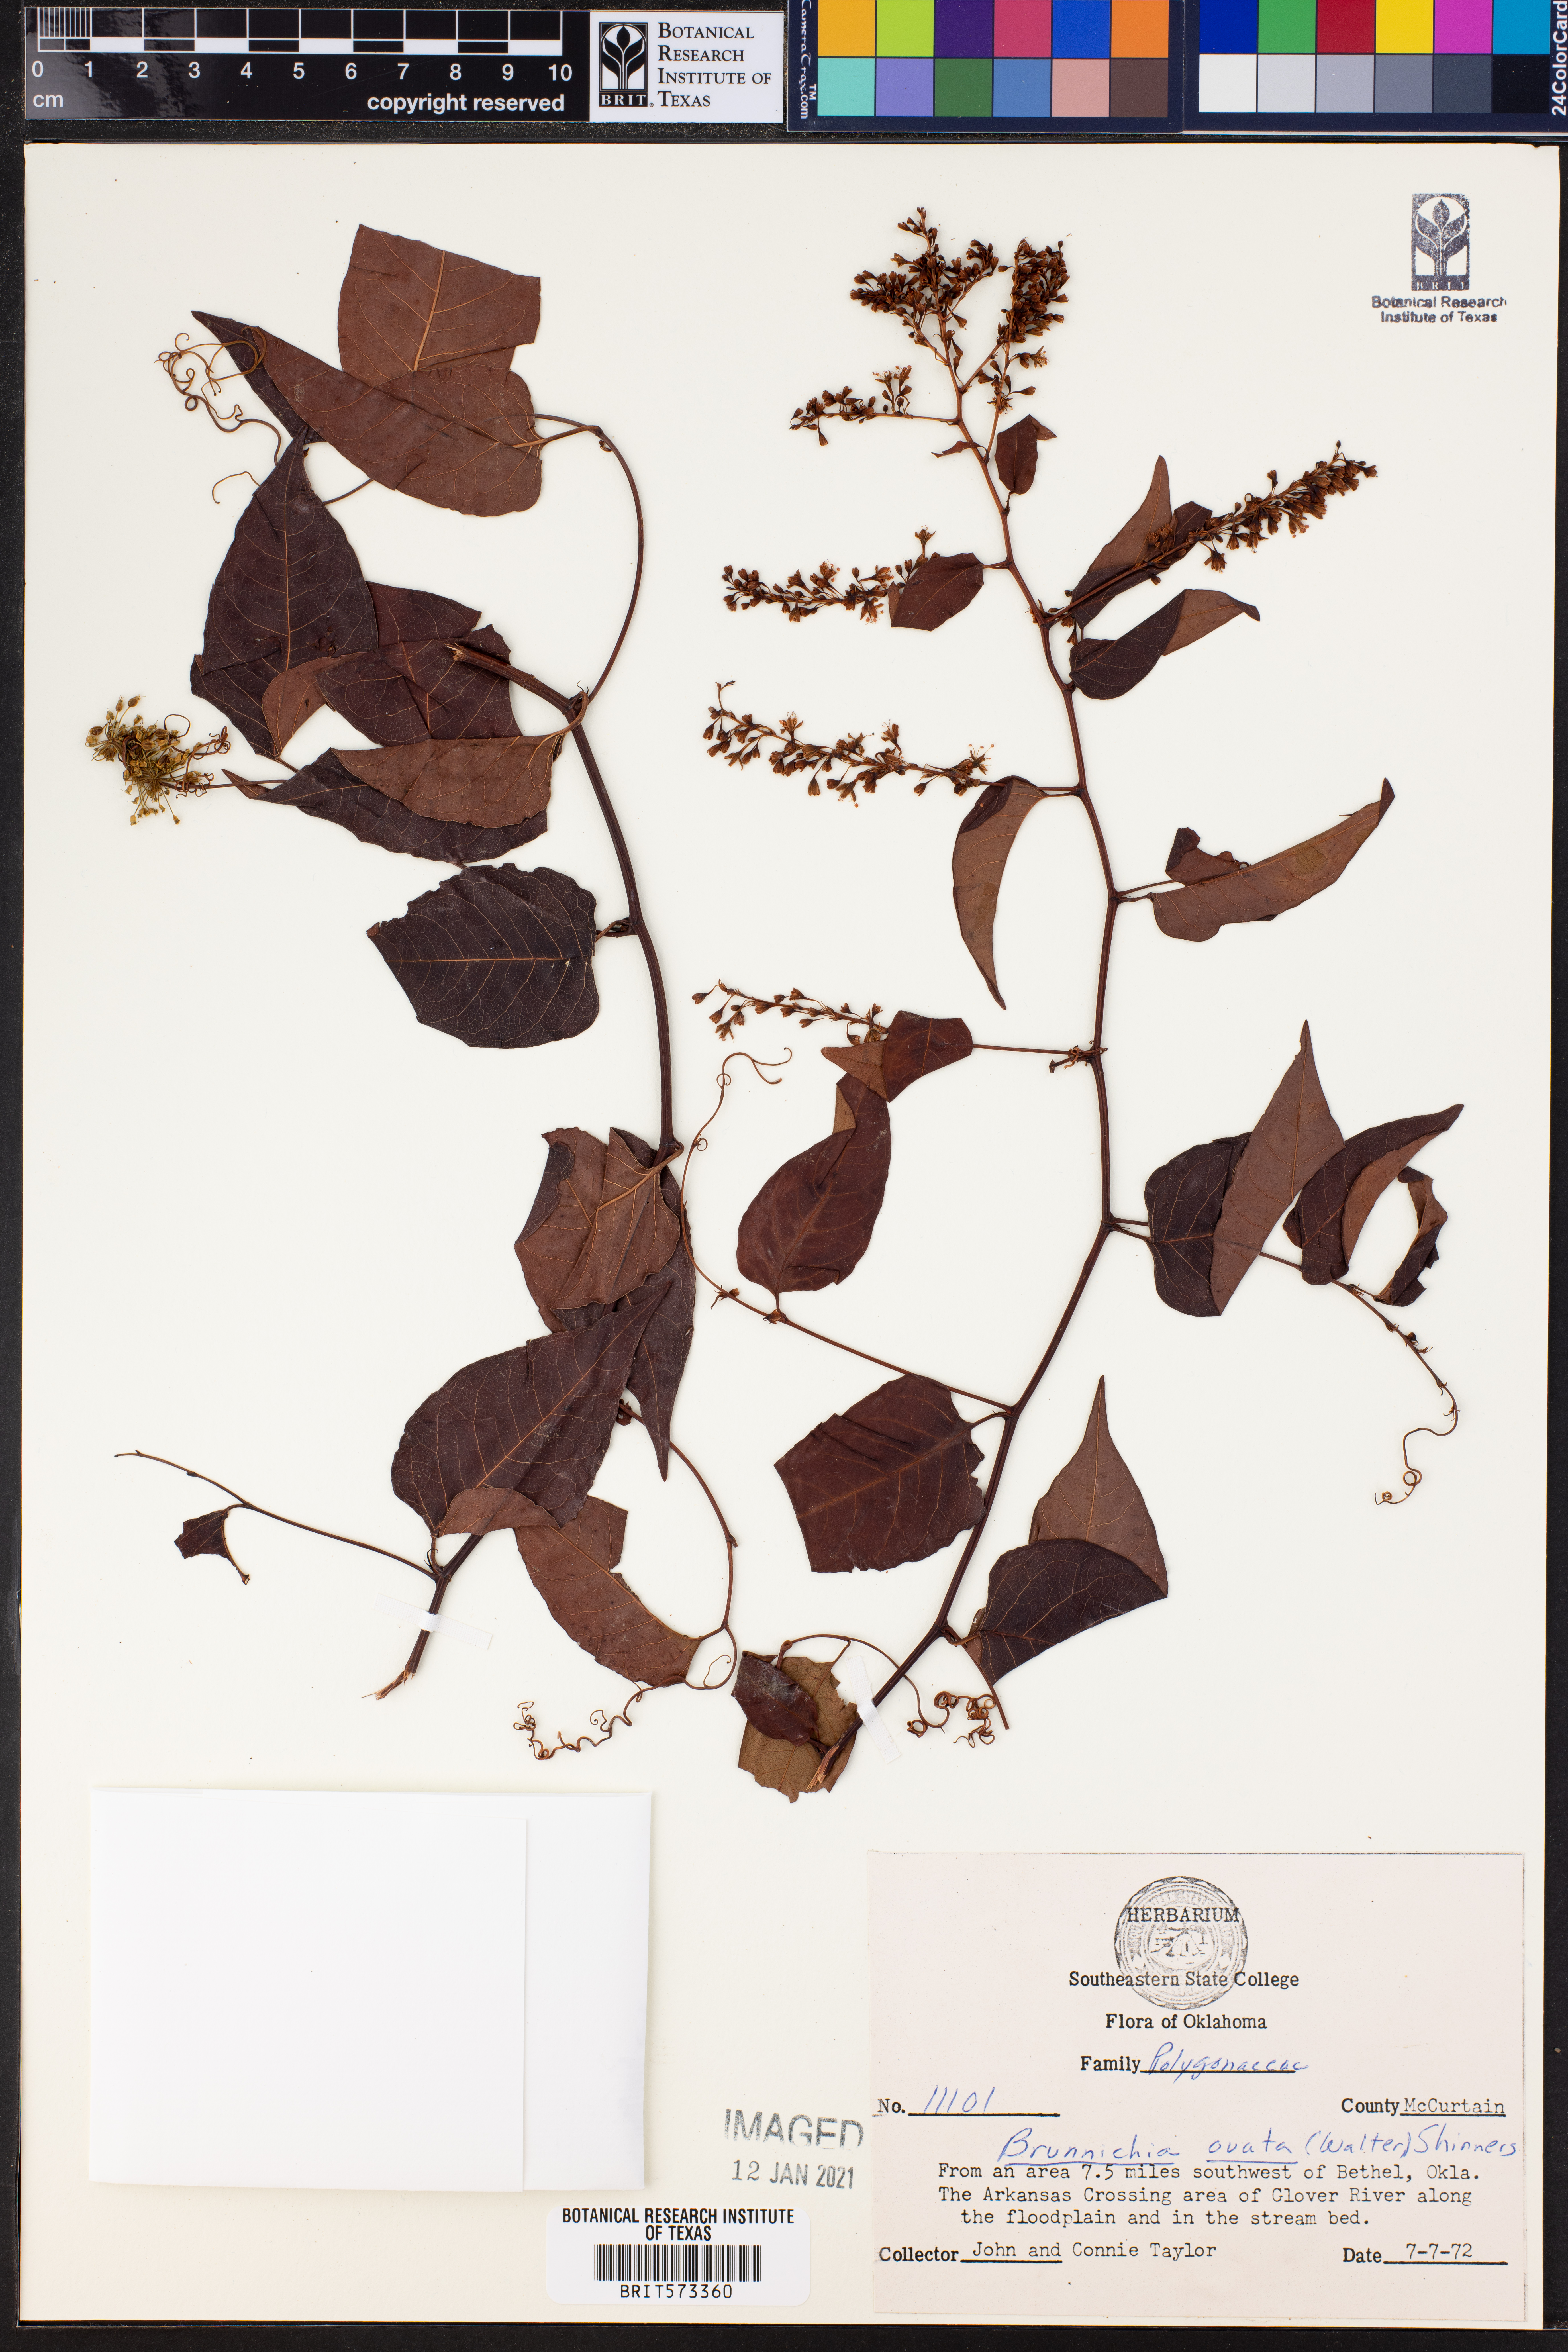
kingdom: Plantae
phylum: Tracheophyta
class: Magnoliopsida
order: Caryophyllales
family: Polygonaceae
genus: Brunnichia
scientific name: Brunnichia ovata
